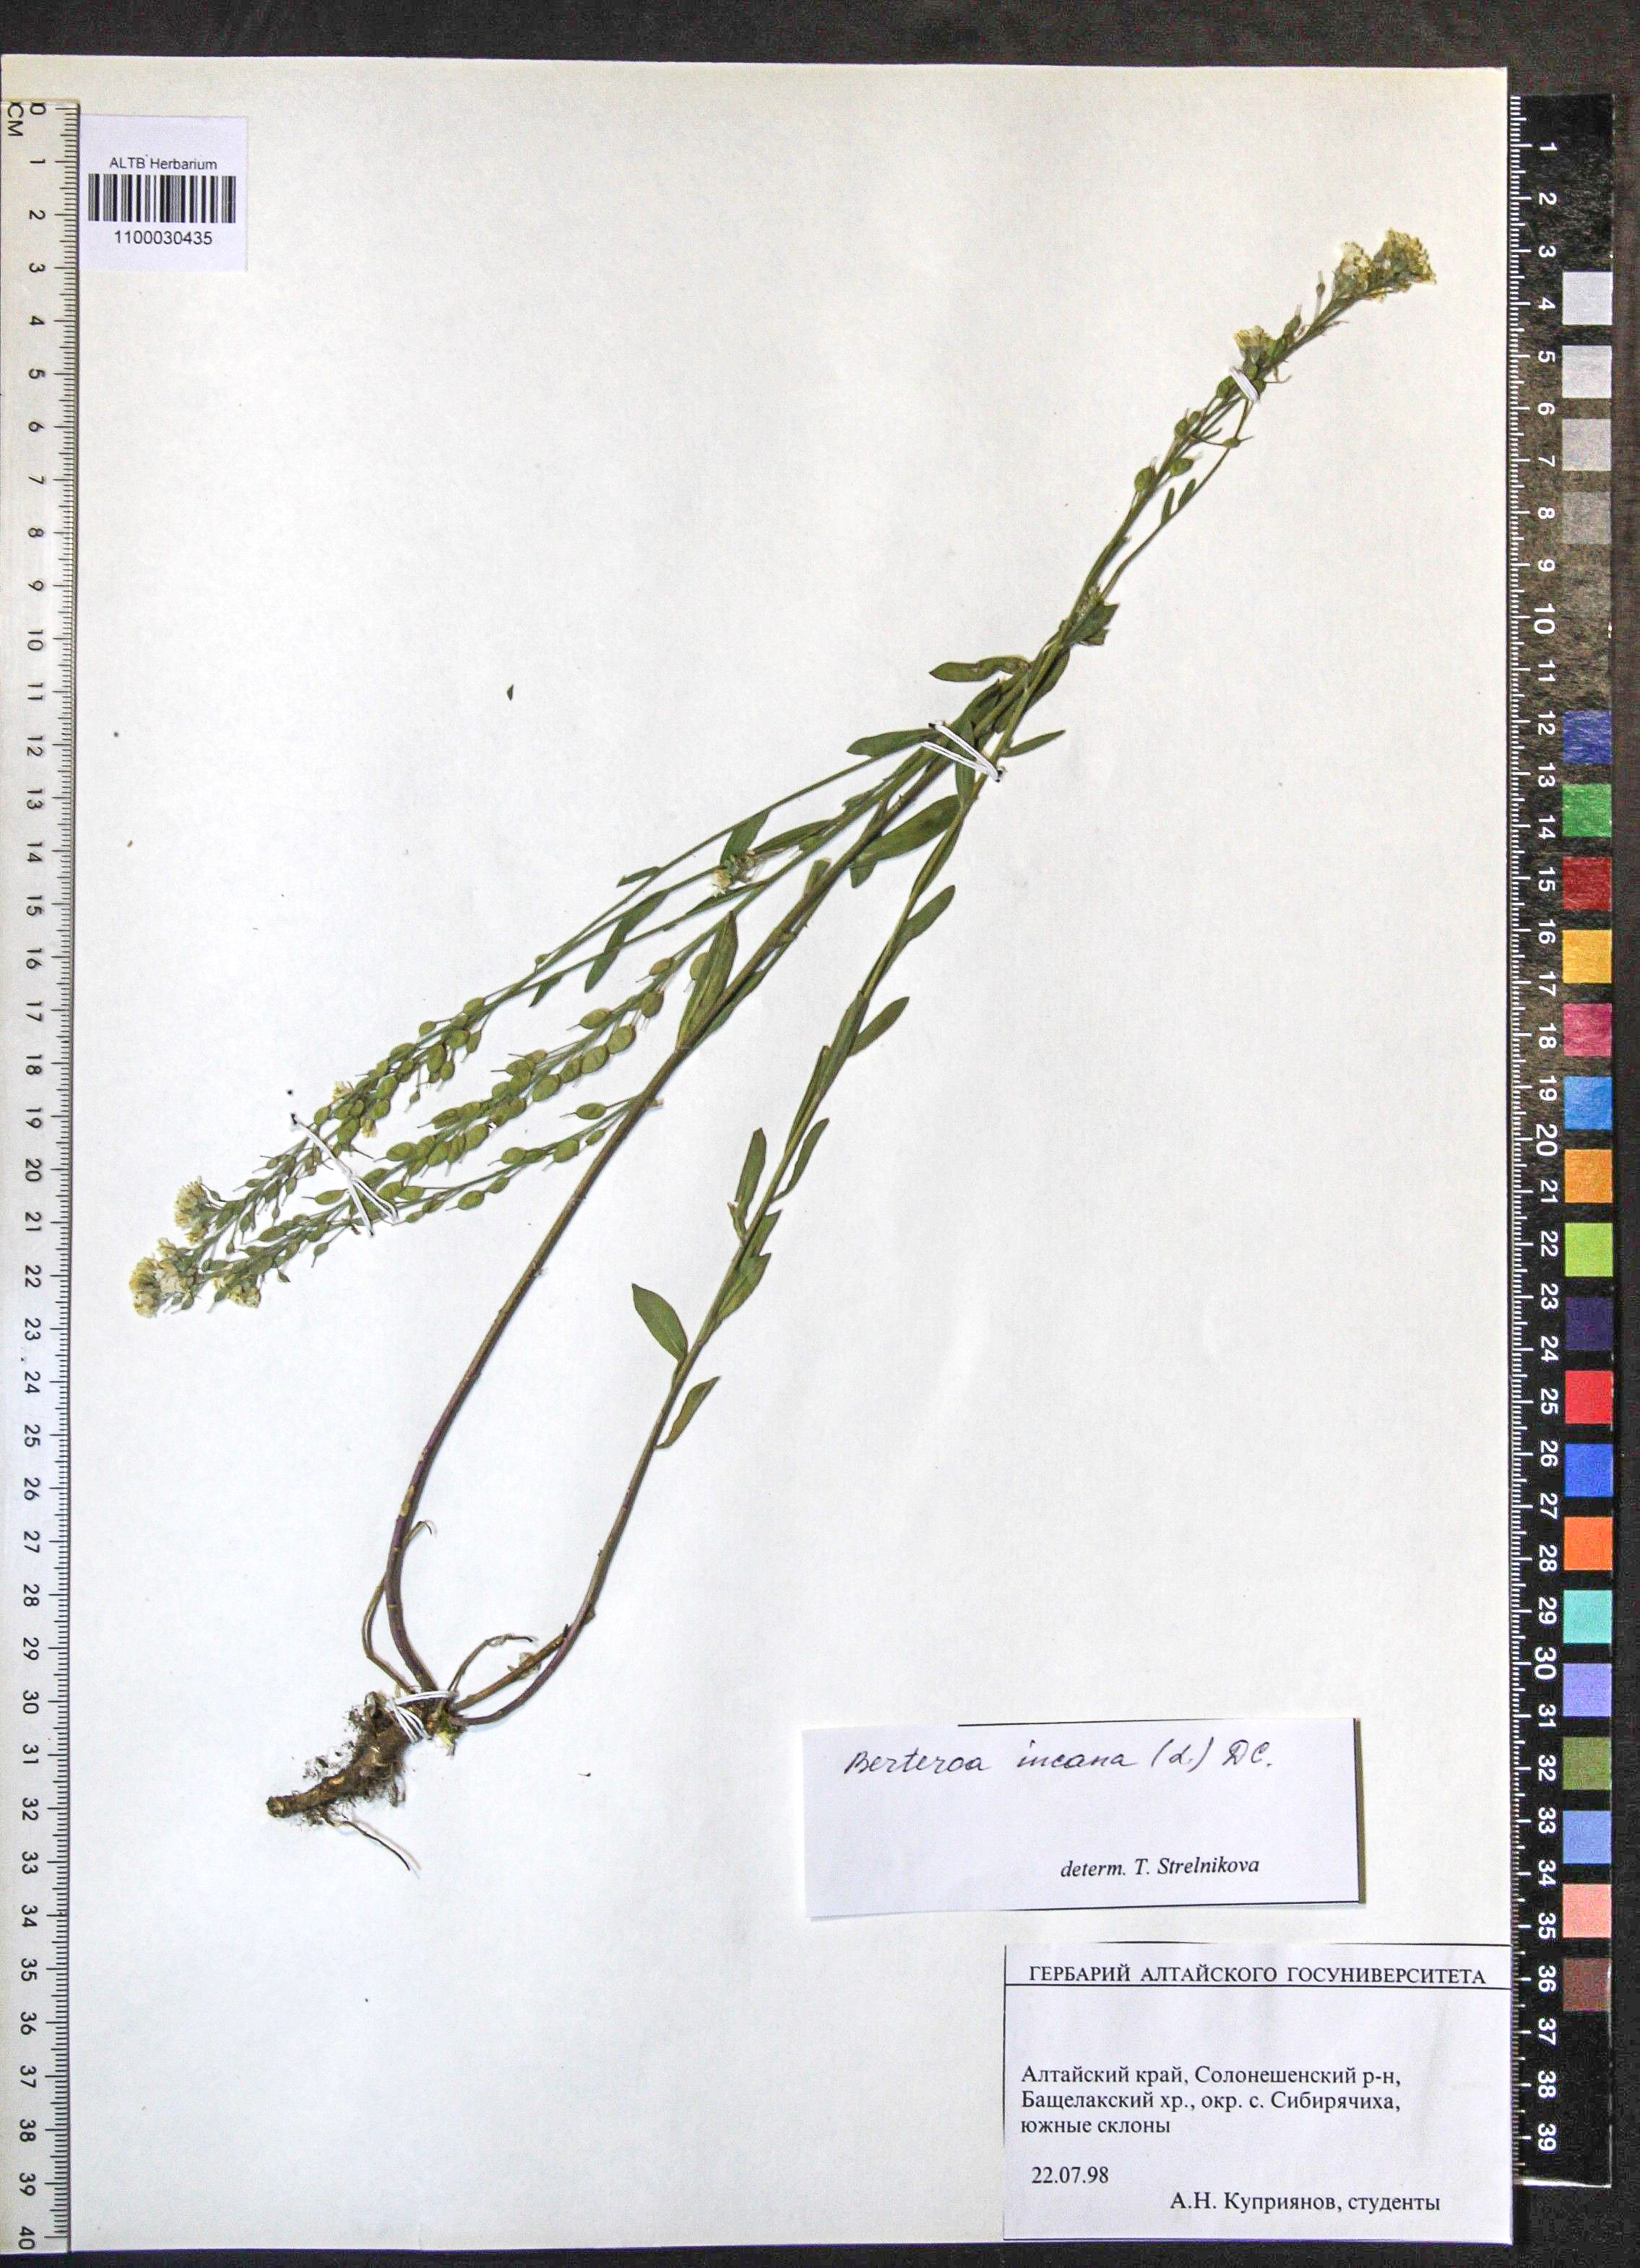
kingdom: Plantae
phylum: Tracheophyta
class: Magnoliopsida
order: Brassicales
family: Brassicaceae
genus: Berteroa
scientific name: Berteroa incana
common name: Hoary alison
